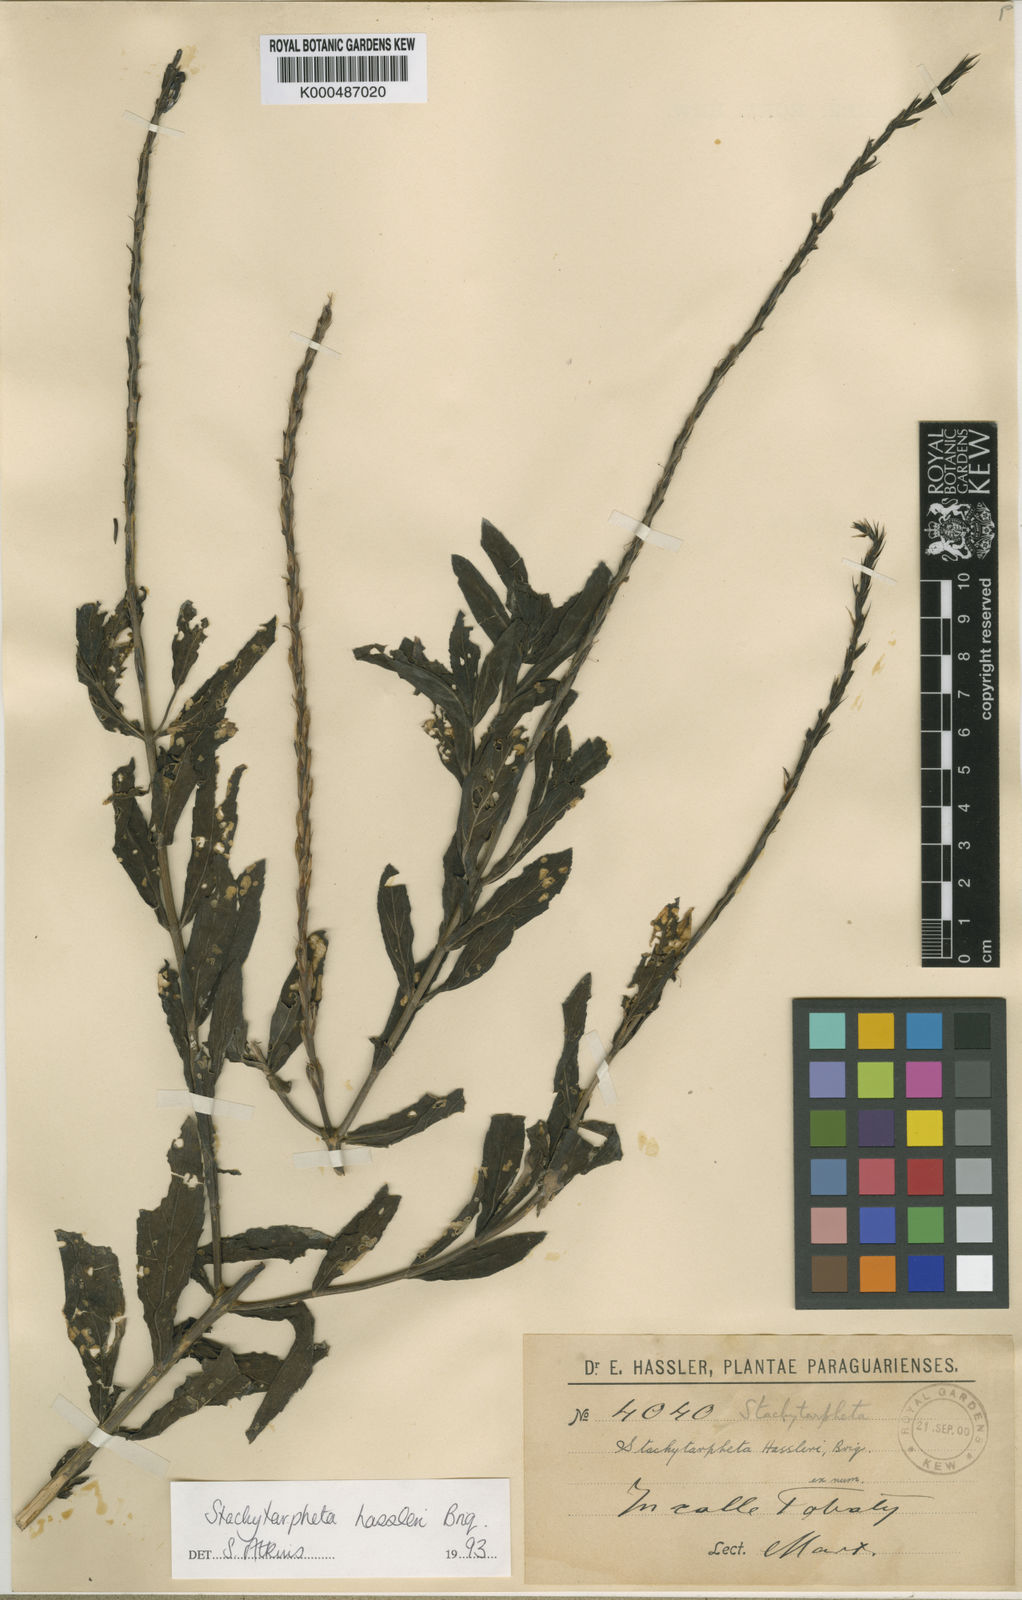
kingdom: Plantae
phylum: Tracheophyta
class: Magnoliopsida
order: Lamiales
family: Verbenaceae
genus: Stachytarpheta
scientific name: Stachytarpheta hassleri
